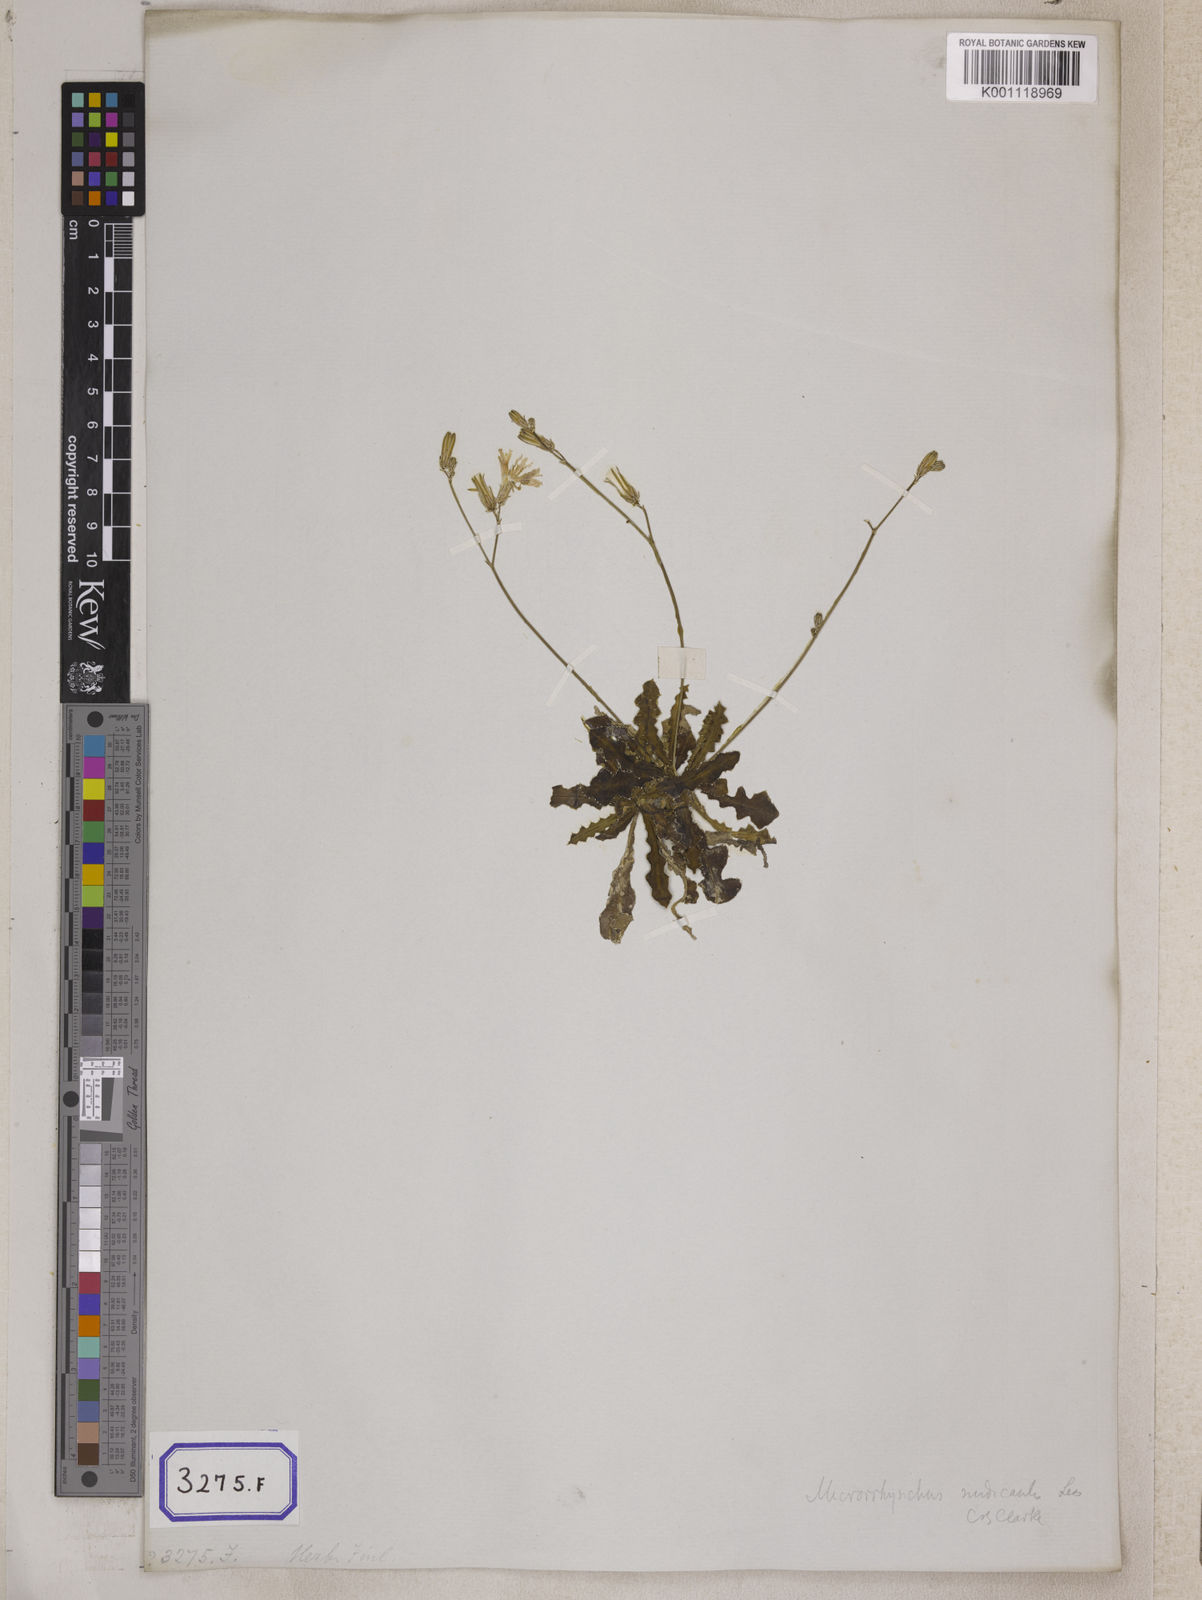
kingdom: Plantae
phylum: Tracheophyta
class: Magnoliopsida
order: Asterales
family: Asteraceae
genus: Launaea
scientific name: Launaea aspleniifolia
